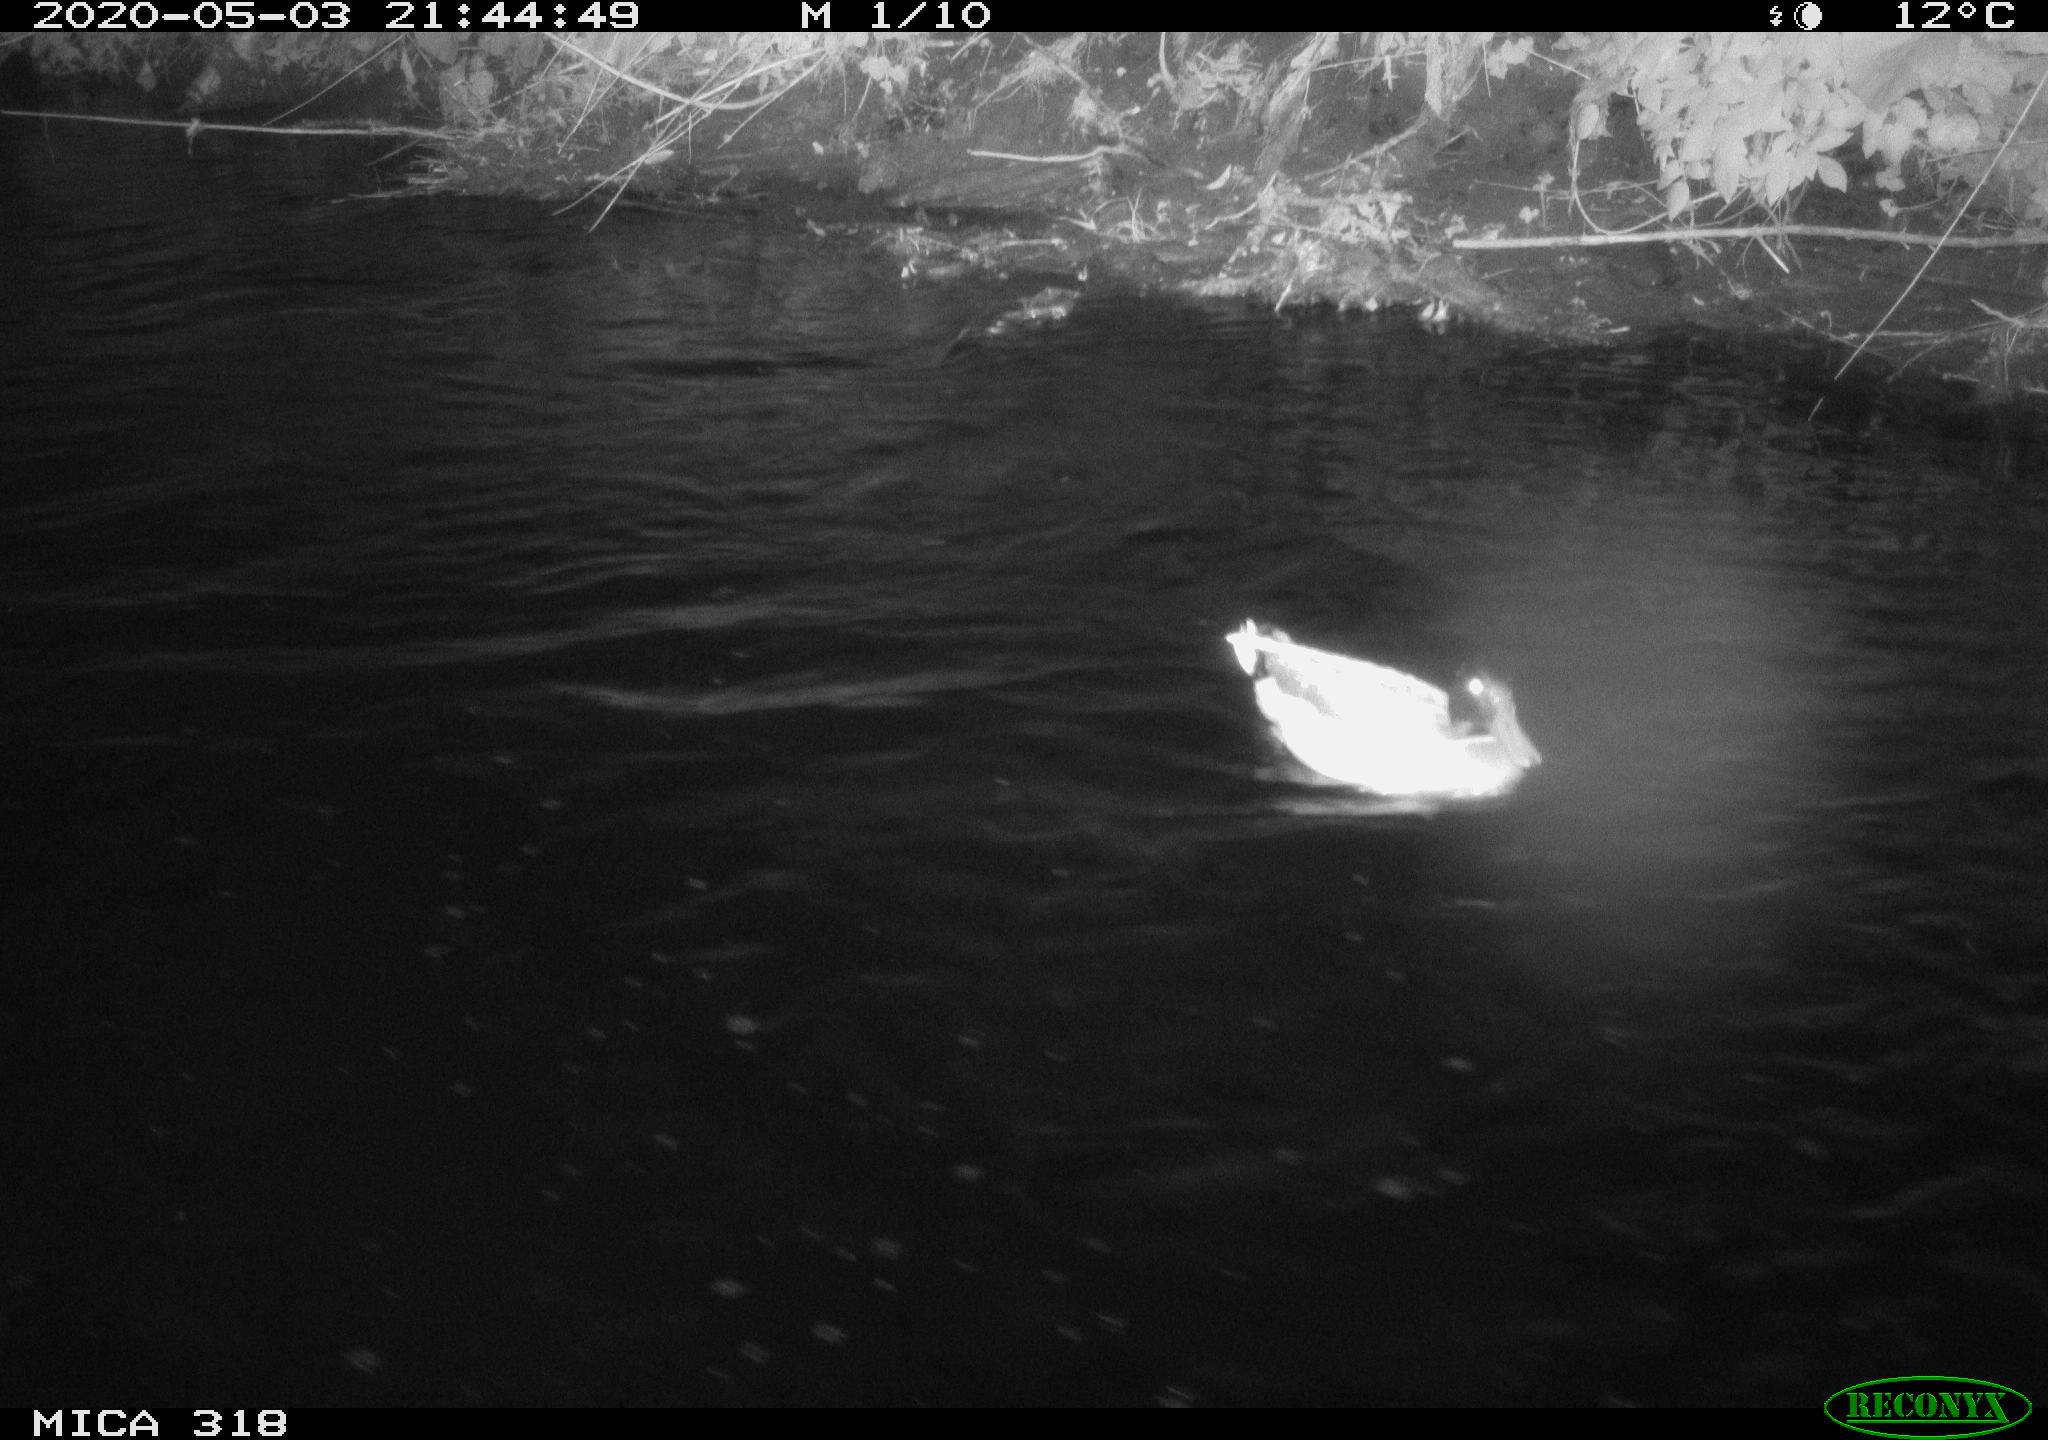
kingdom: Animalia
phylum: Chordata
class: Aves
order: Anseriformes
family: Anatidae
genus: Anas
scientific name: Anas platyrhynchos
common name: Mallard
